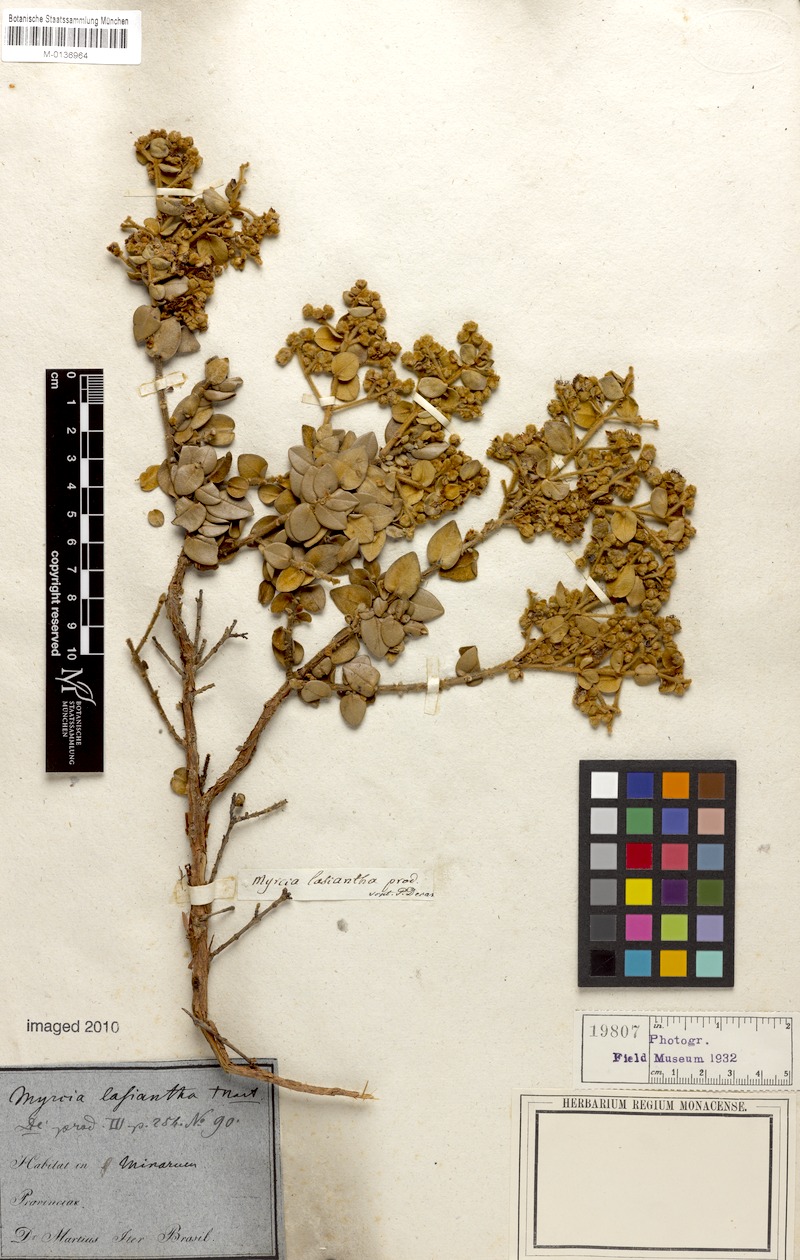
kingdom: Plantae
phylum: Tracheophyta
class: Magnoliopsida
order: Myrtales
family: Myrtaceae
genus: Myrcia
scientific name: Myrcia lasiantha
